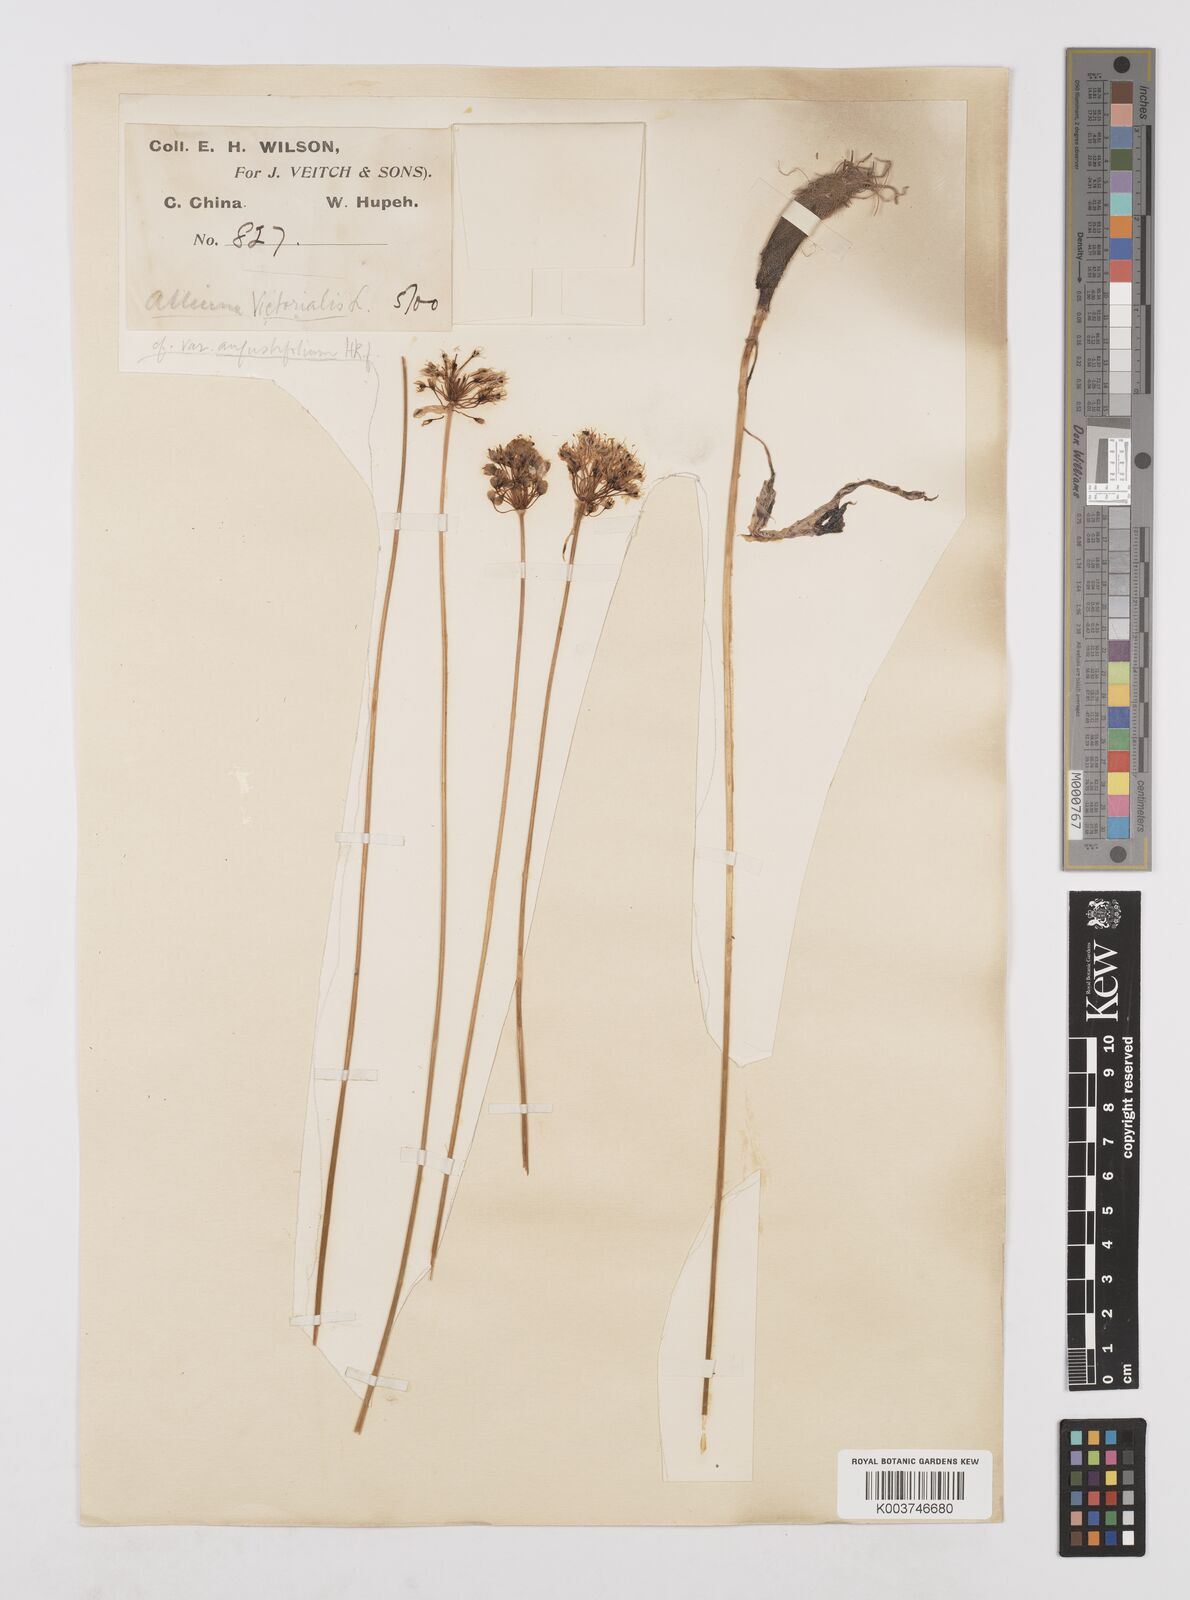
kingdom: Plantae
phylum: Tracheophyta
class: Liliopsida
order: Asparagales
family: Amaryllidaceae
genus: Allium
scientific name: Allium prattii
